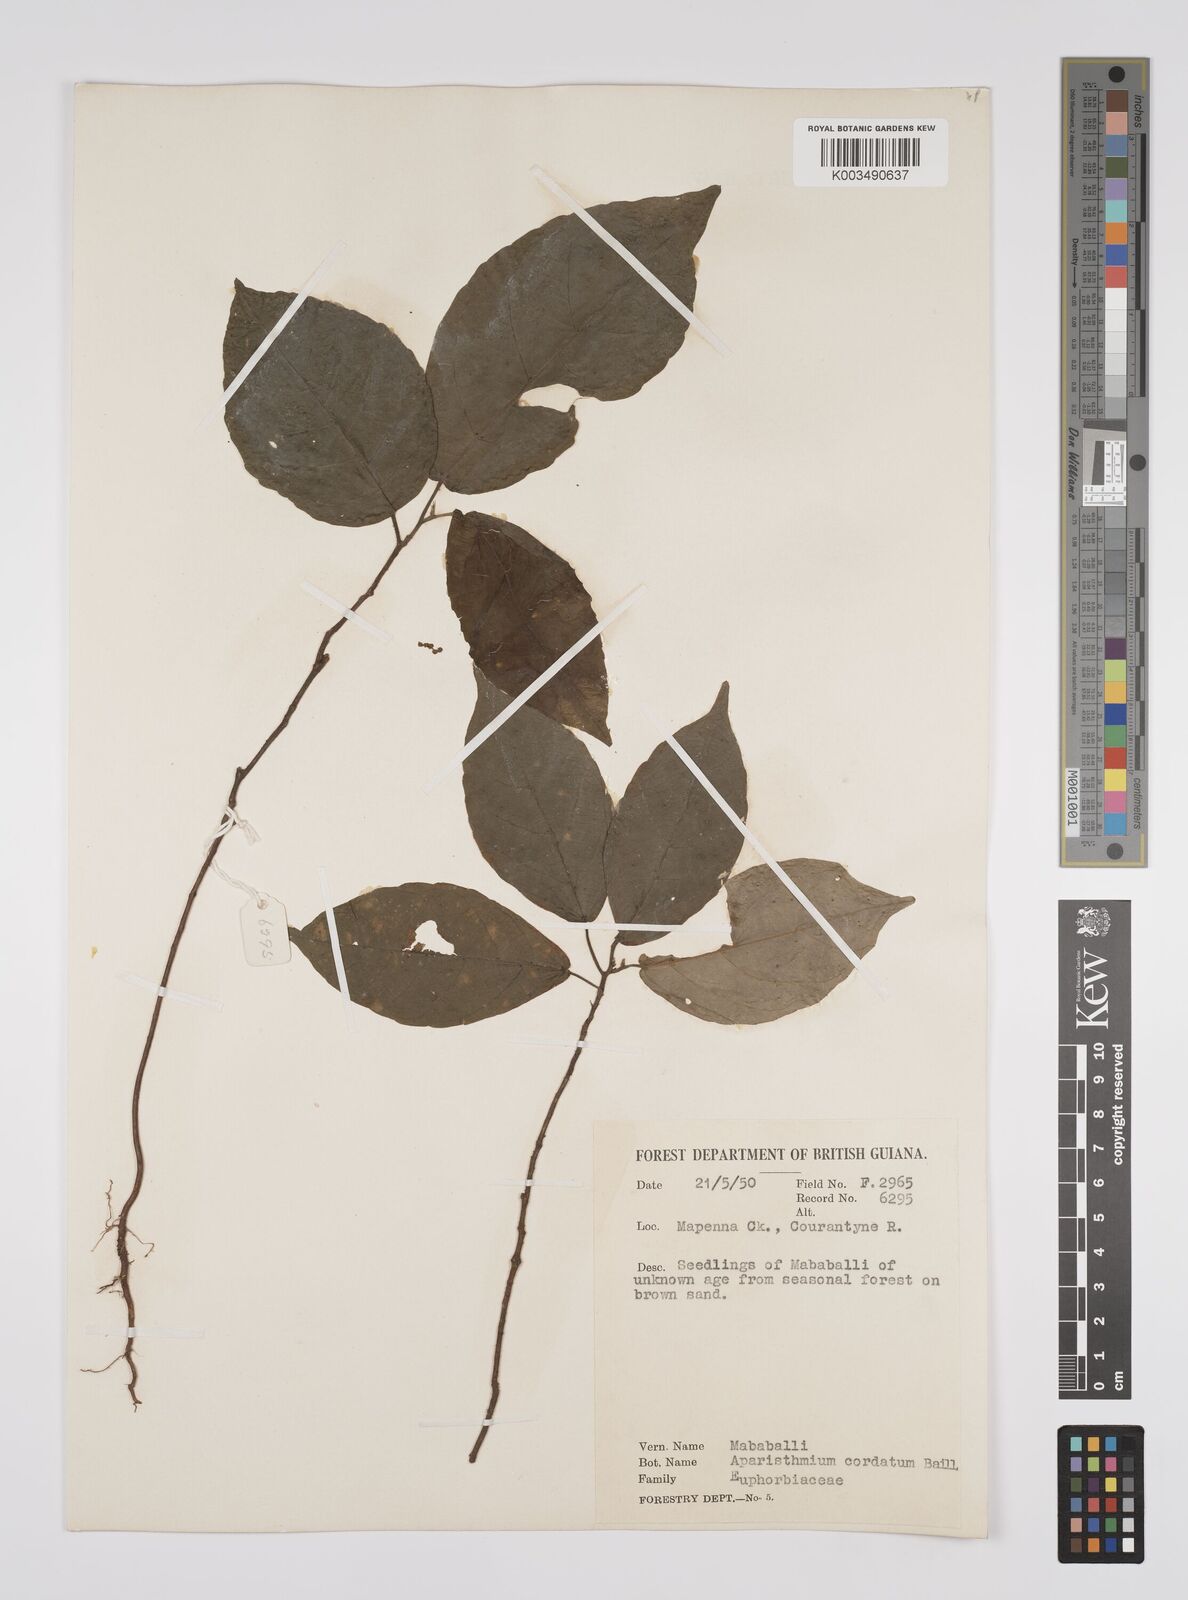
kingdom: Plantae
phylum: Tracheophyta
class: Magnoliopsida
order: Malpighiales
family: Euphorbiaceae
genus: Aparisthmium
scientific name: Aparisthmium cordatum
